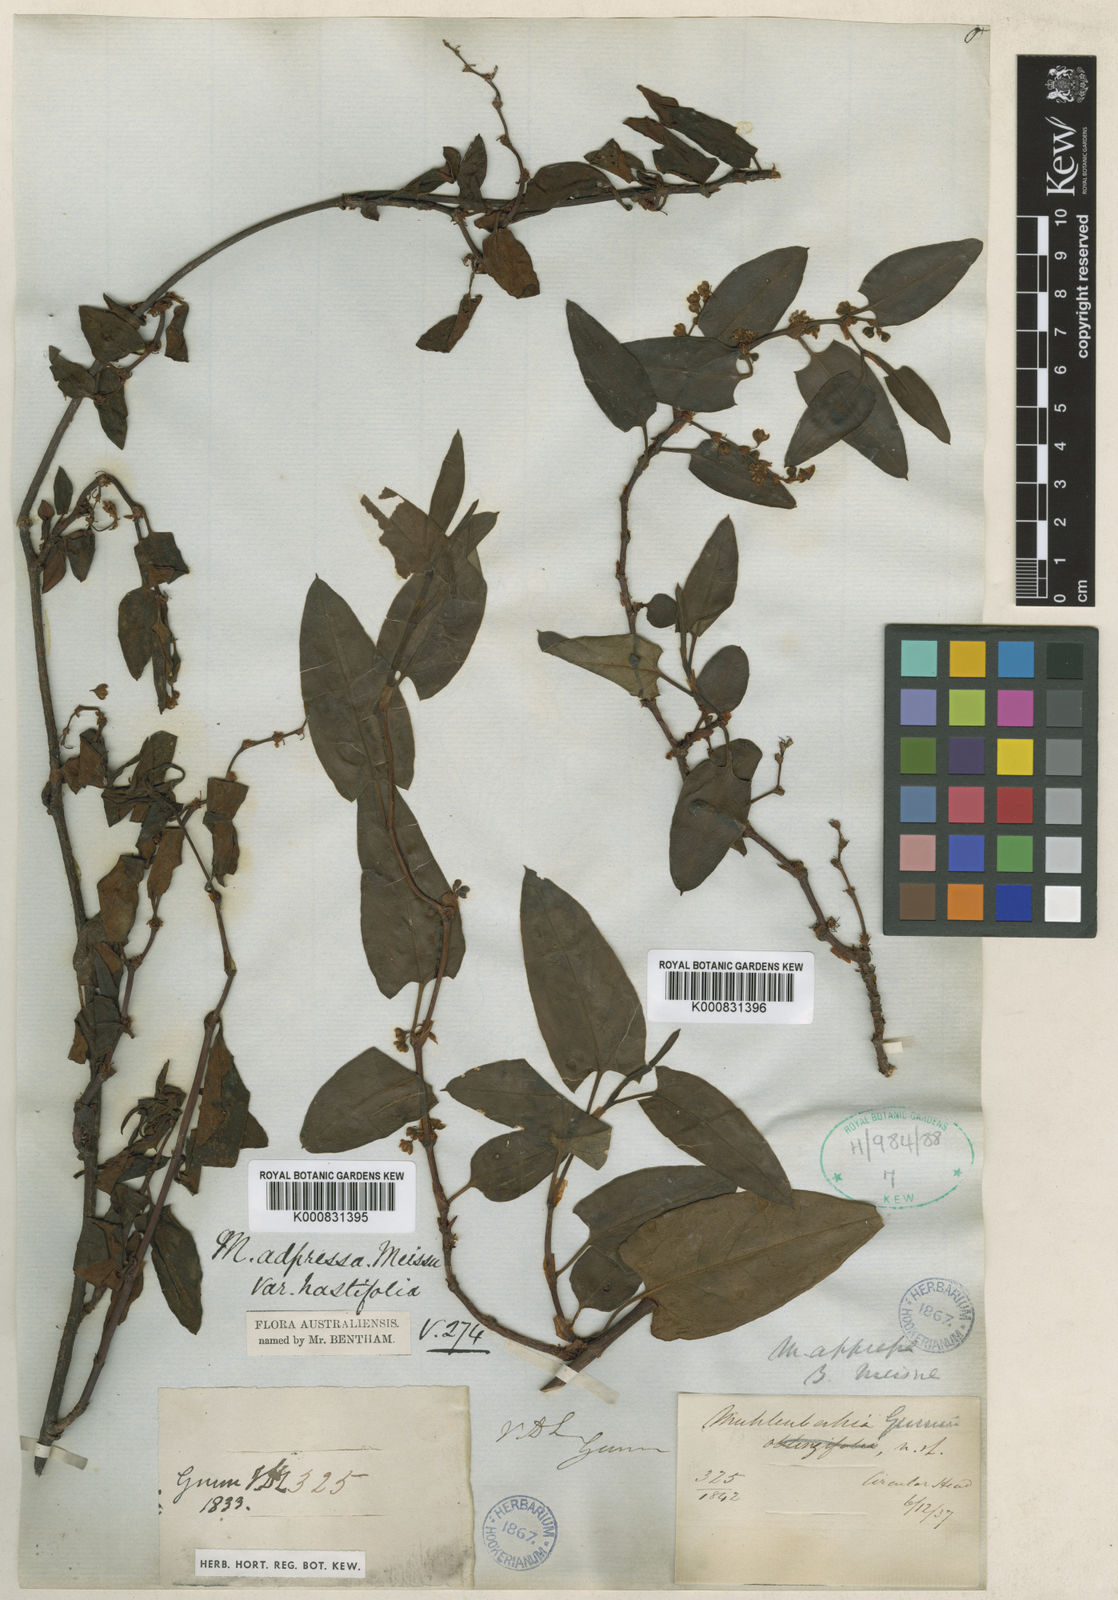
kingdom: Plantae
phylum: Tracheophyta
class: Magnoliopsida
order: Caryophyllales
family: Polygonaceae
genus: Muehlenbeckia
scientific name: Muehlenbeckia gunnii
